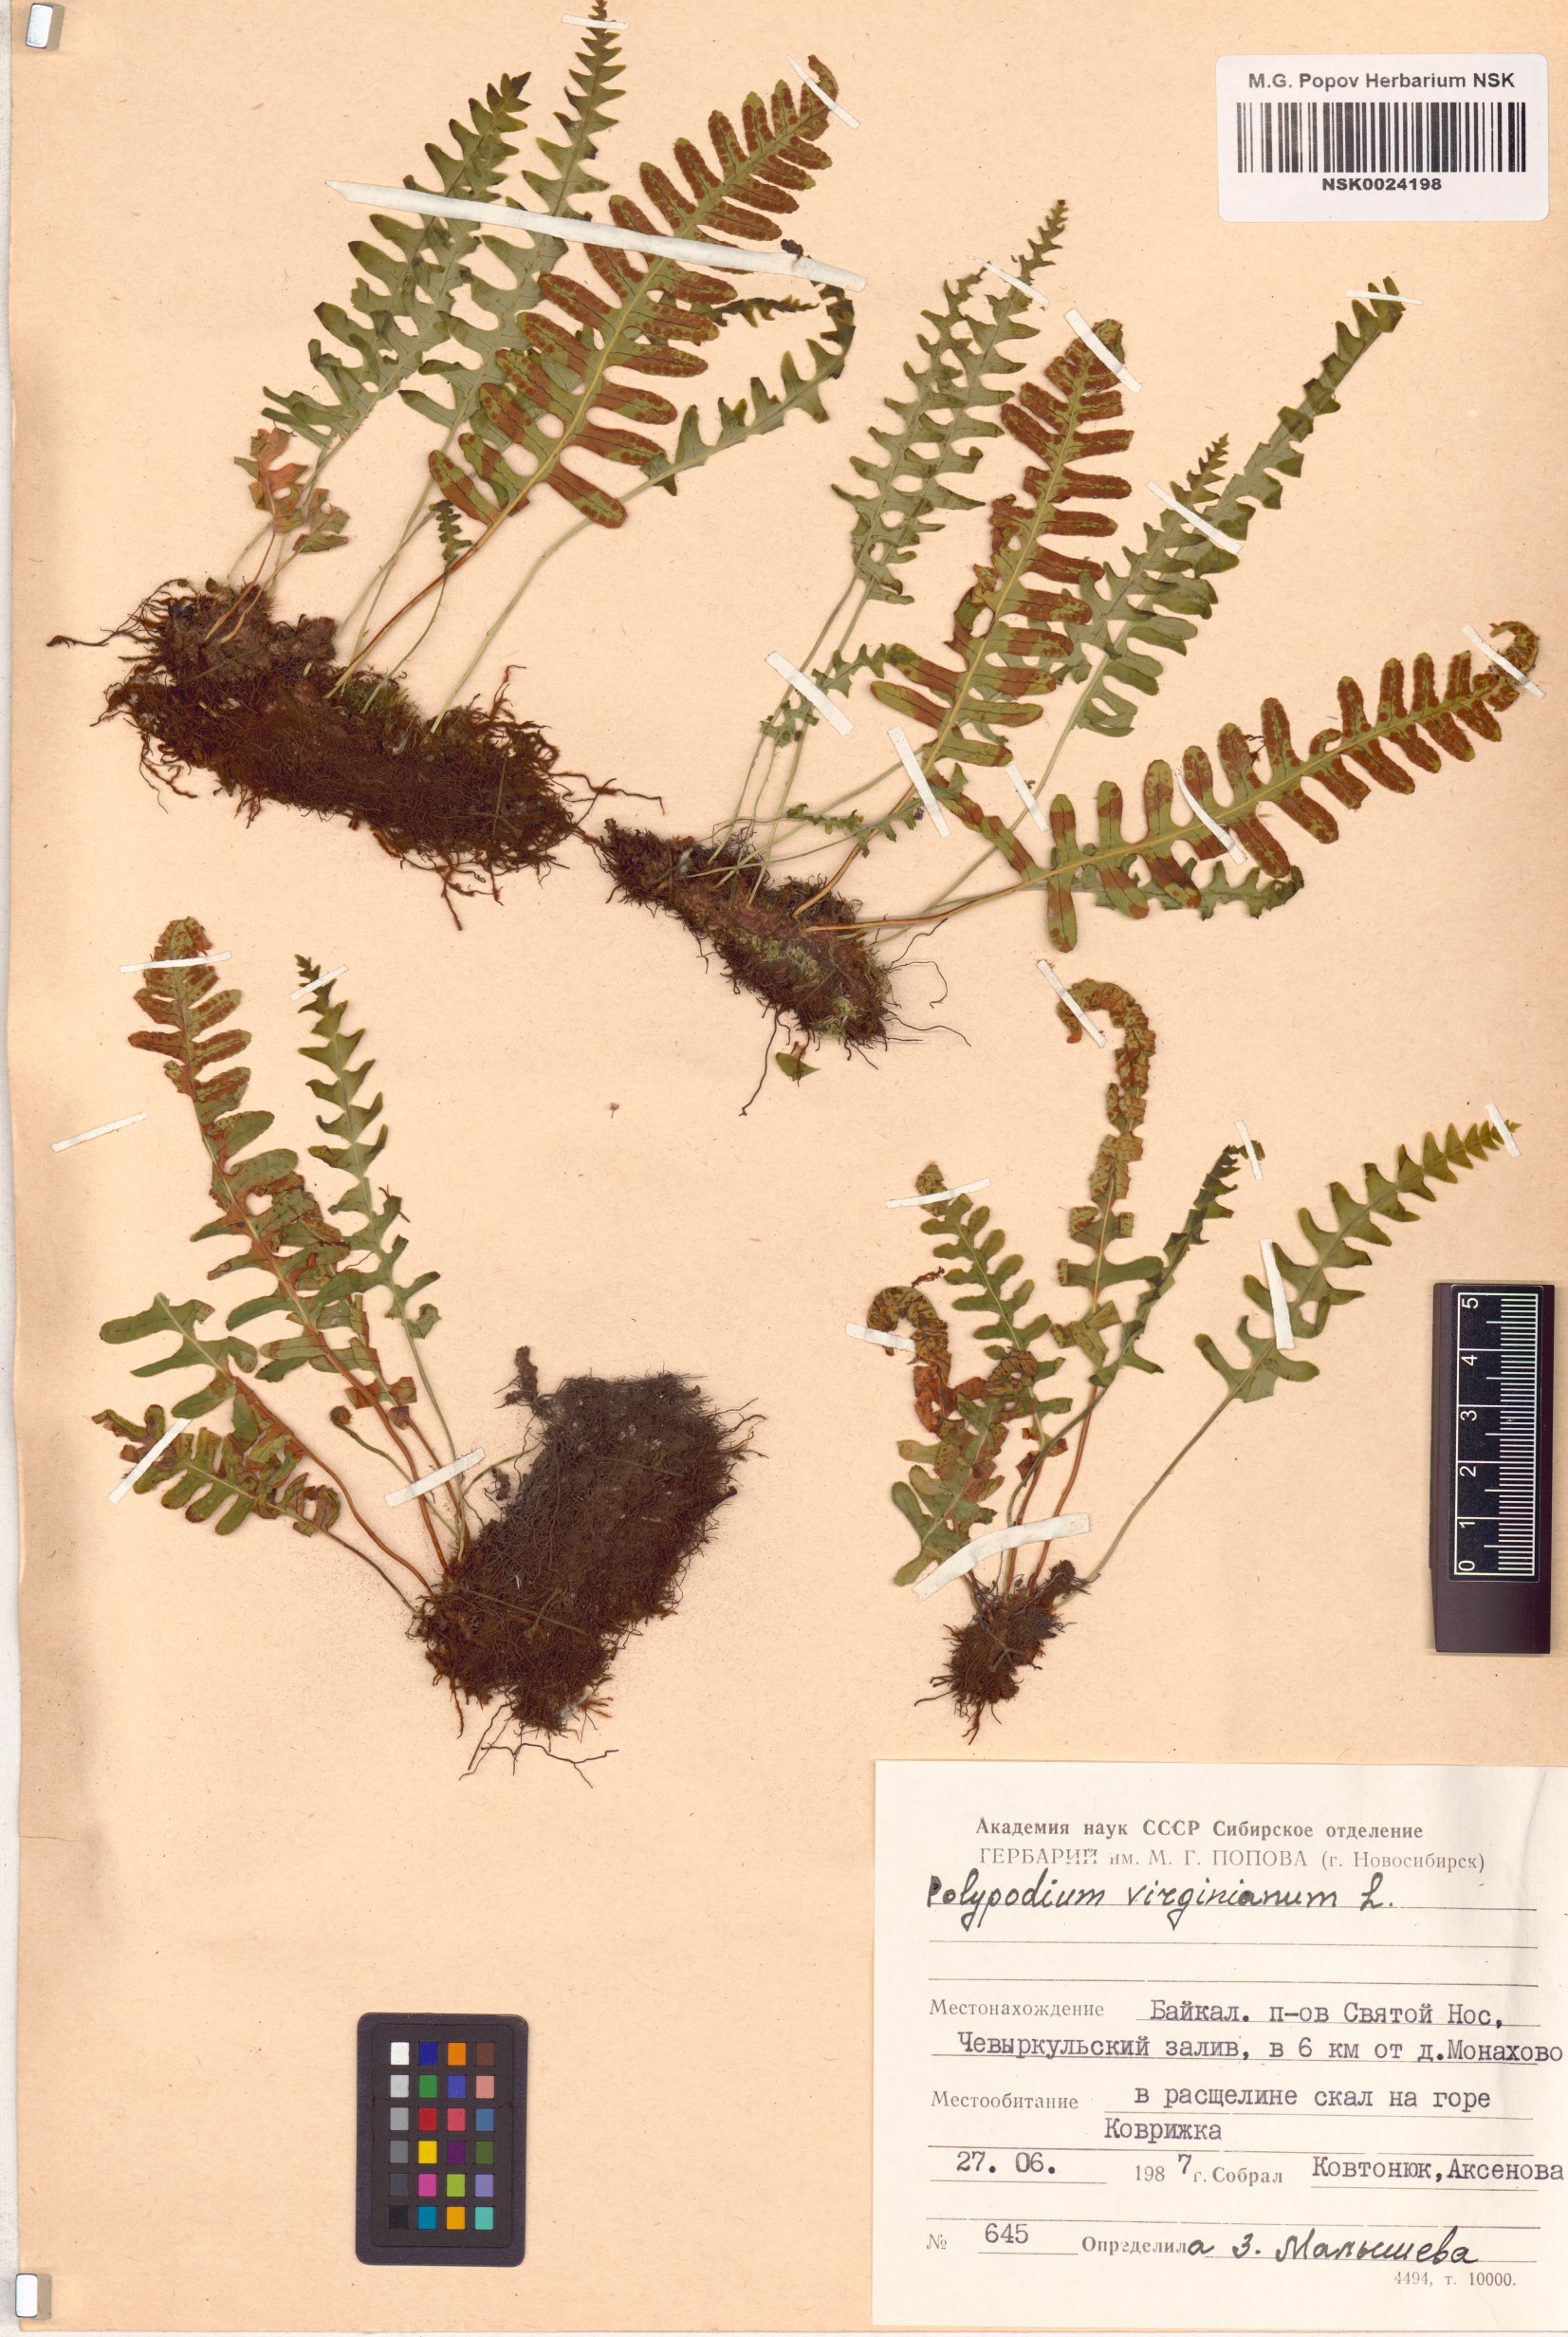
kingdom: Plantae
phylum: Tracheophyta
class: Polypodiopsida
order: Polypodiales
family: Polypodiaceae
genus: Polypodium
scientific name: Polypodium virginianum
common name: American wall fern
